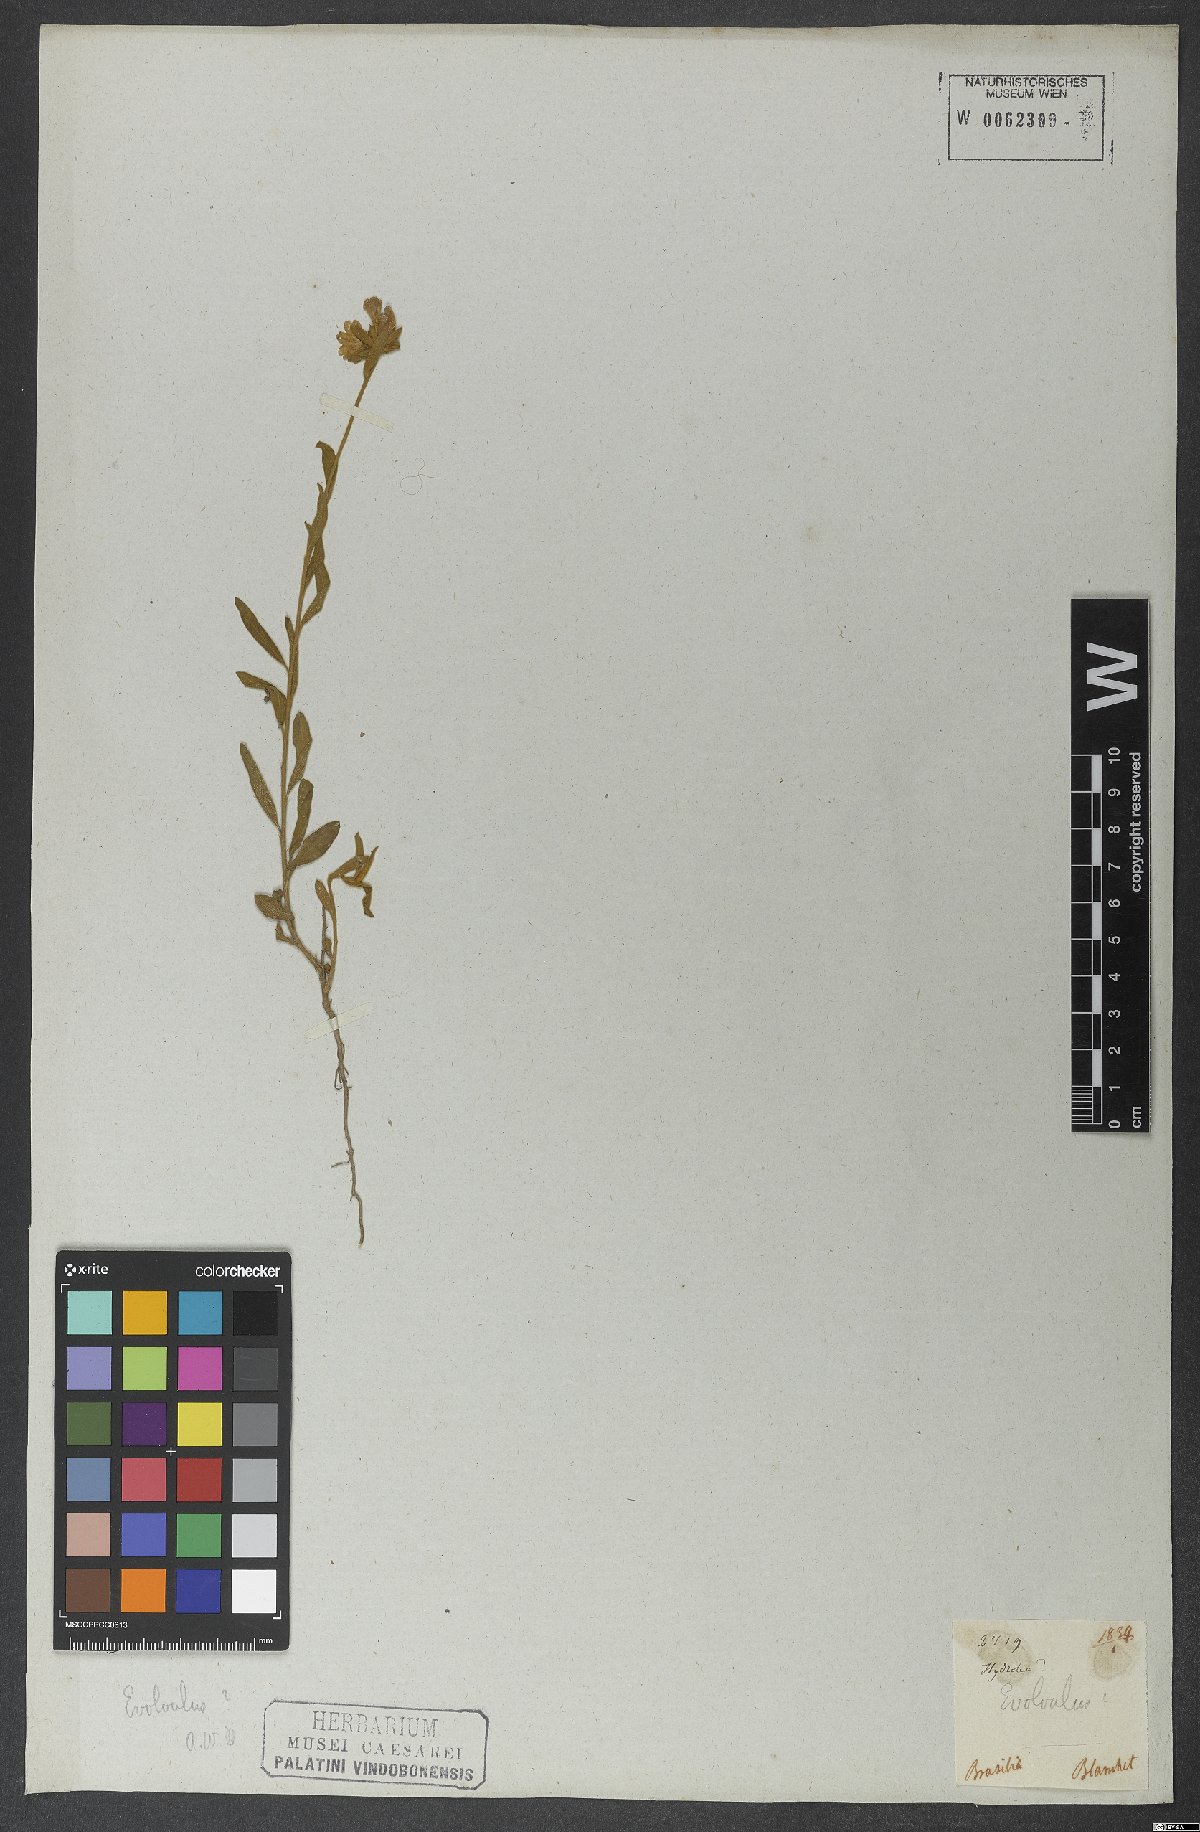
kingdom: Plantae
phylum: Tracheophyta
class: Magnoliopsida
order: Solanales
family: Convolvulaceae
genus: Evolvulus
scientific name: Evolvulus glomeratus
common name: Brazilian dwarf morning-glory
